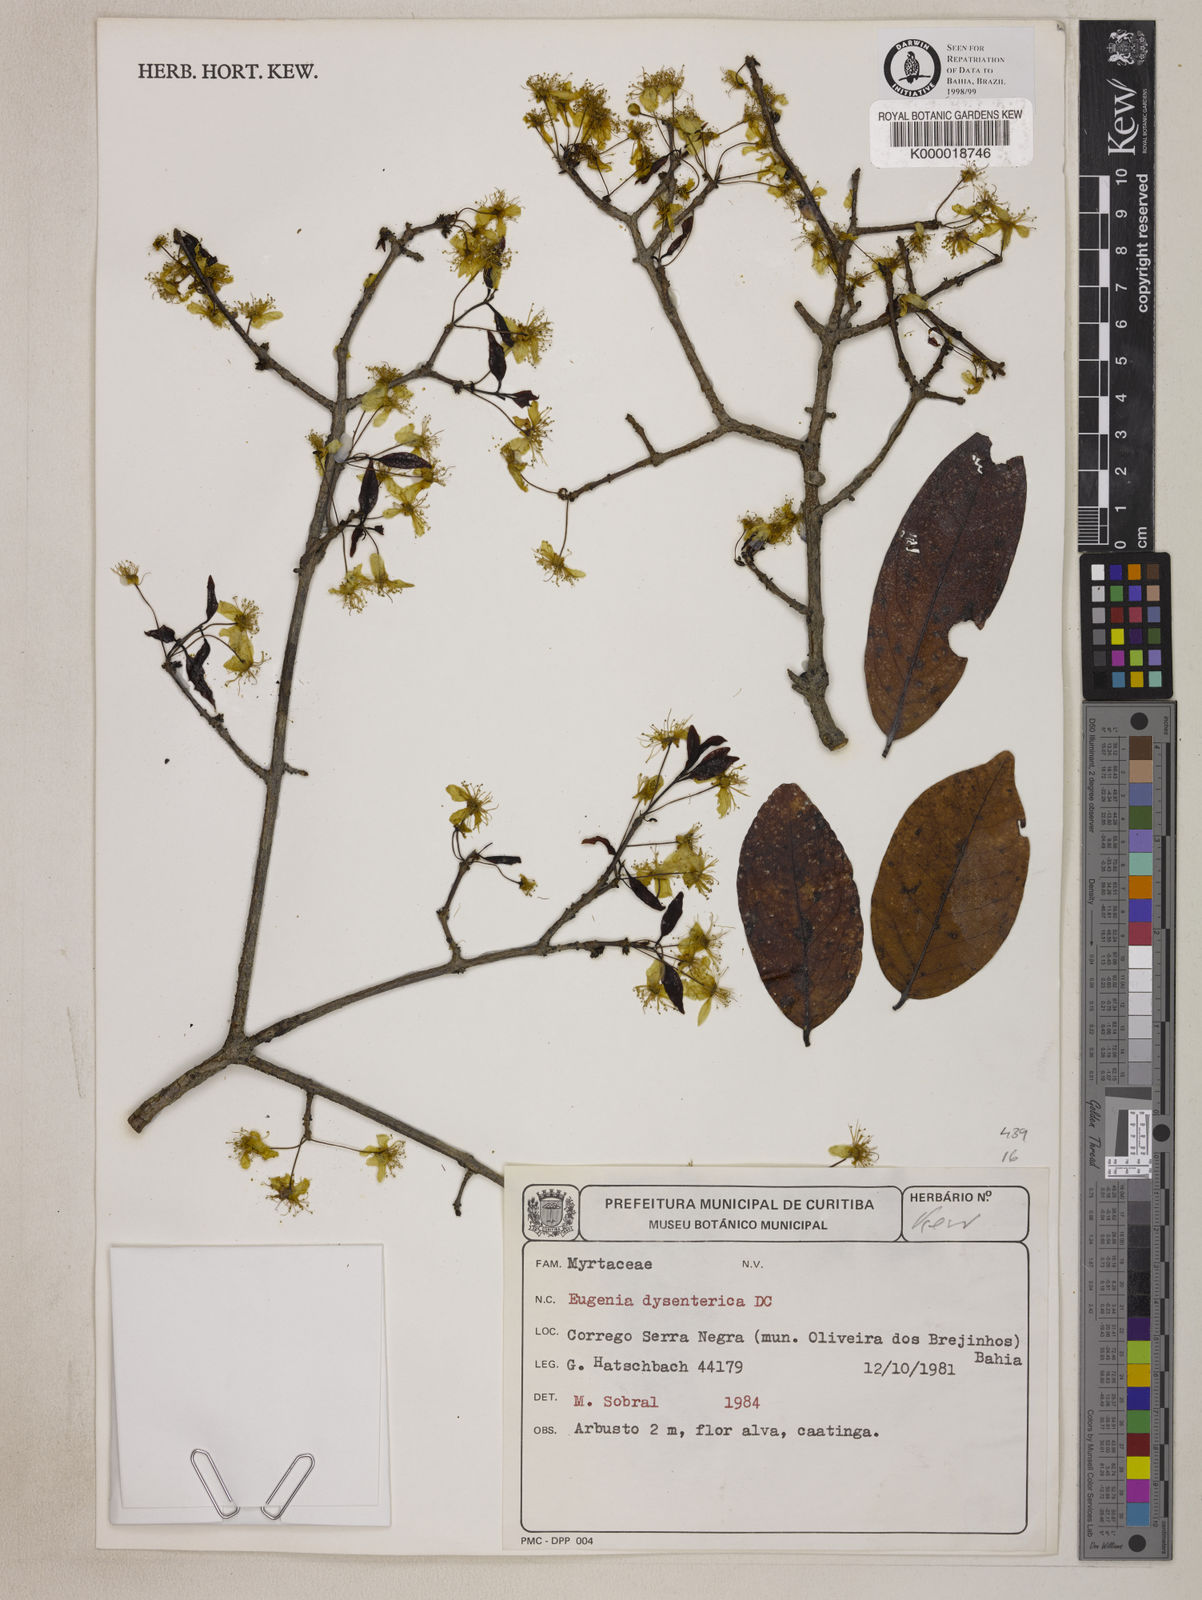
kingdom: Plantae
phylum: Tracheophyta
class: Magnoliopsida
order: Myrtales
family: Myrtaceae
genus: Eugenia
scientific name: Eugenia dysenterica
